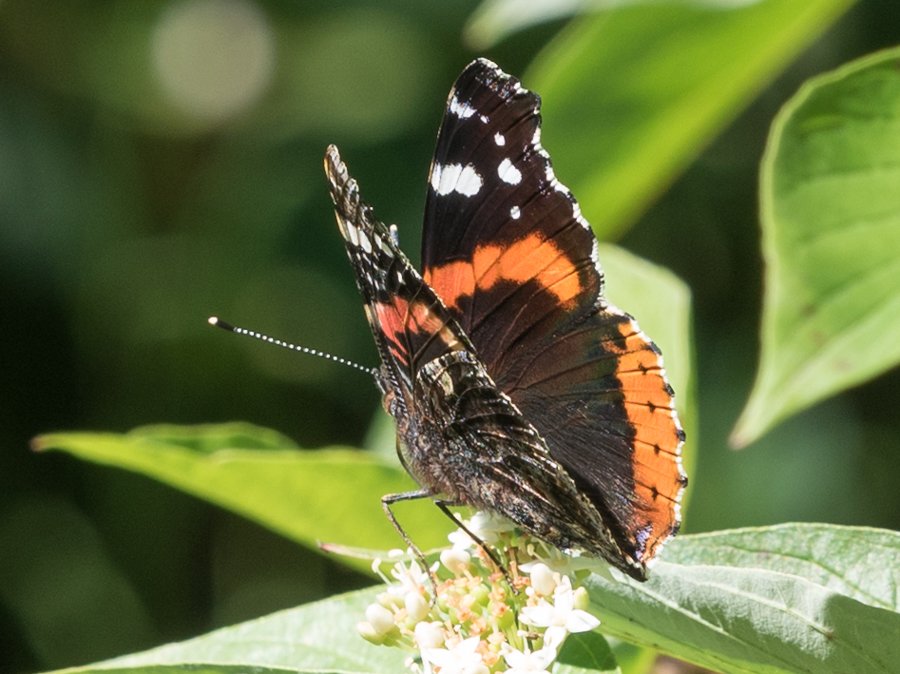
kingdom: Animalia
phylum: Arthropoda
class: Insecta
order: Lepidoptera
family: Nymphalidae
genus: Vanessa
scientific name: Vanessa atalanta
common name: Red Admiral
